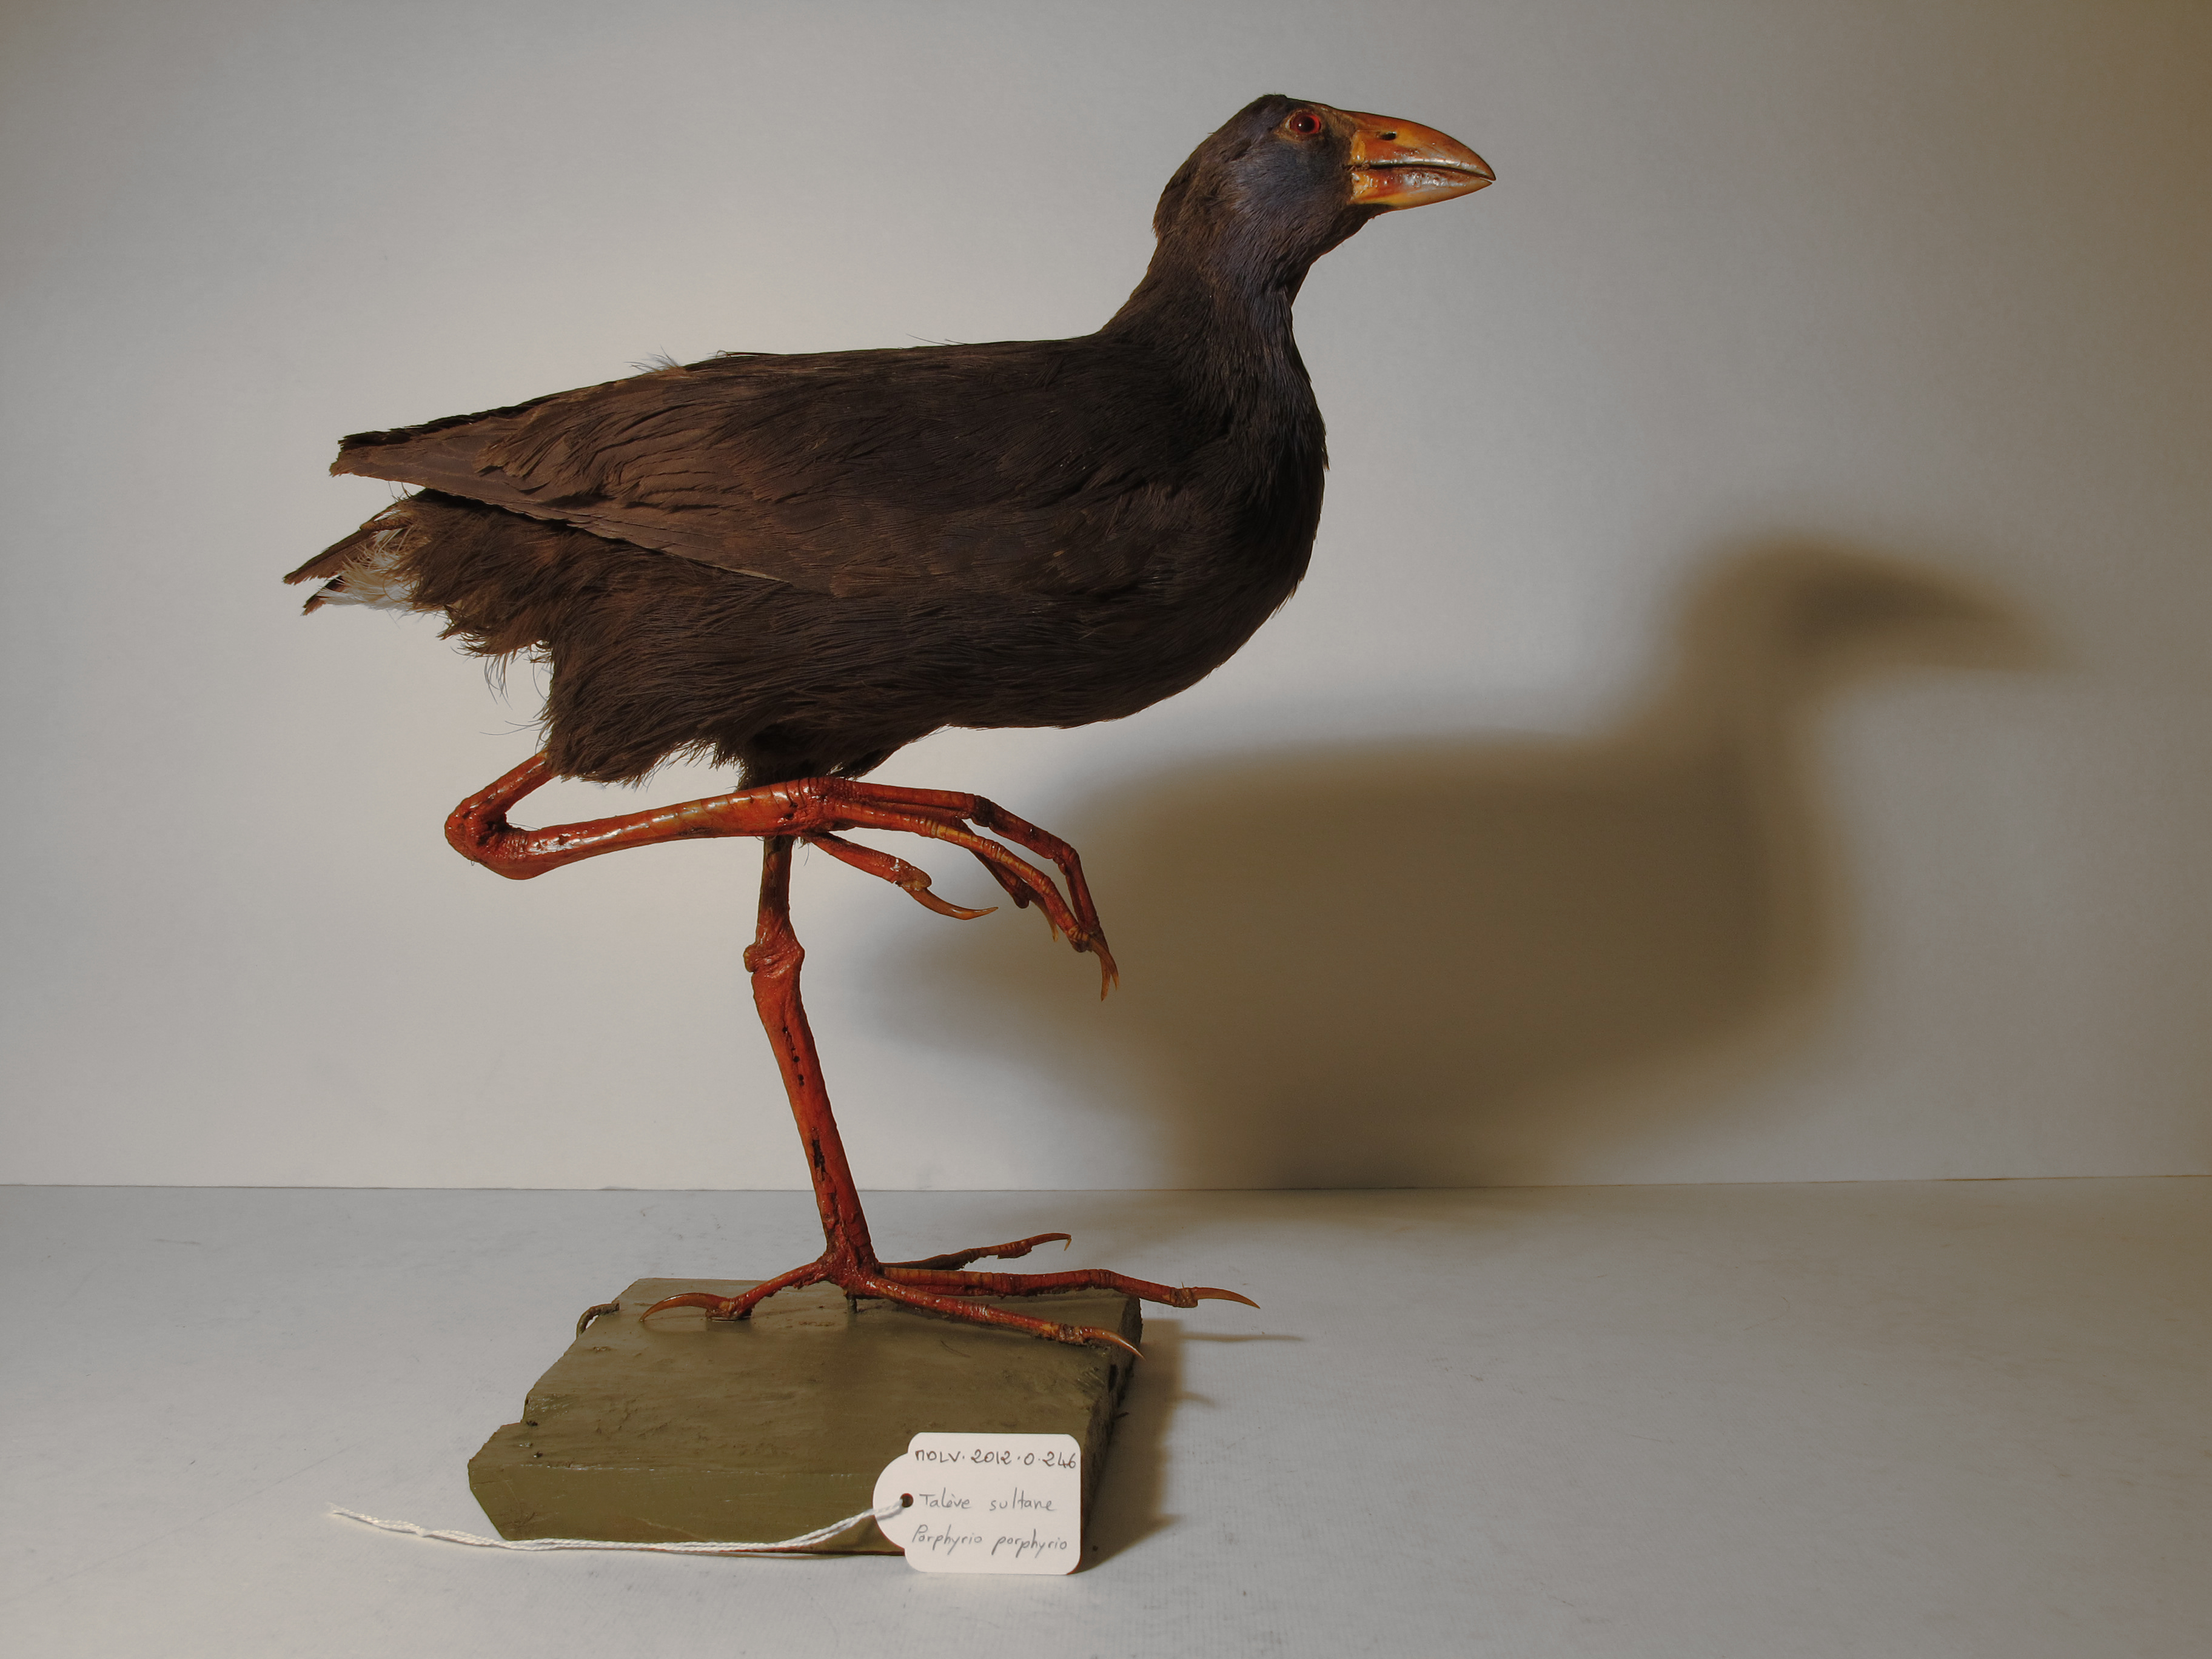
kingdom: Animalia
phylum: Chordata
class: Aves
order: Gruiformes
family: Rallidae
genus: Porphyrio
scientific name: Porphyrio porphyrio
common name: Purple Swamphen
